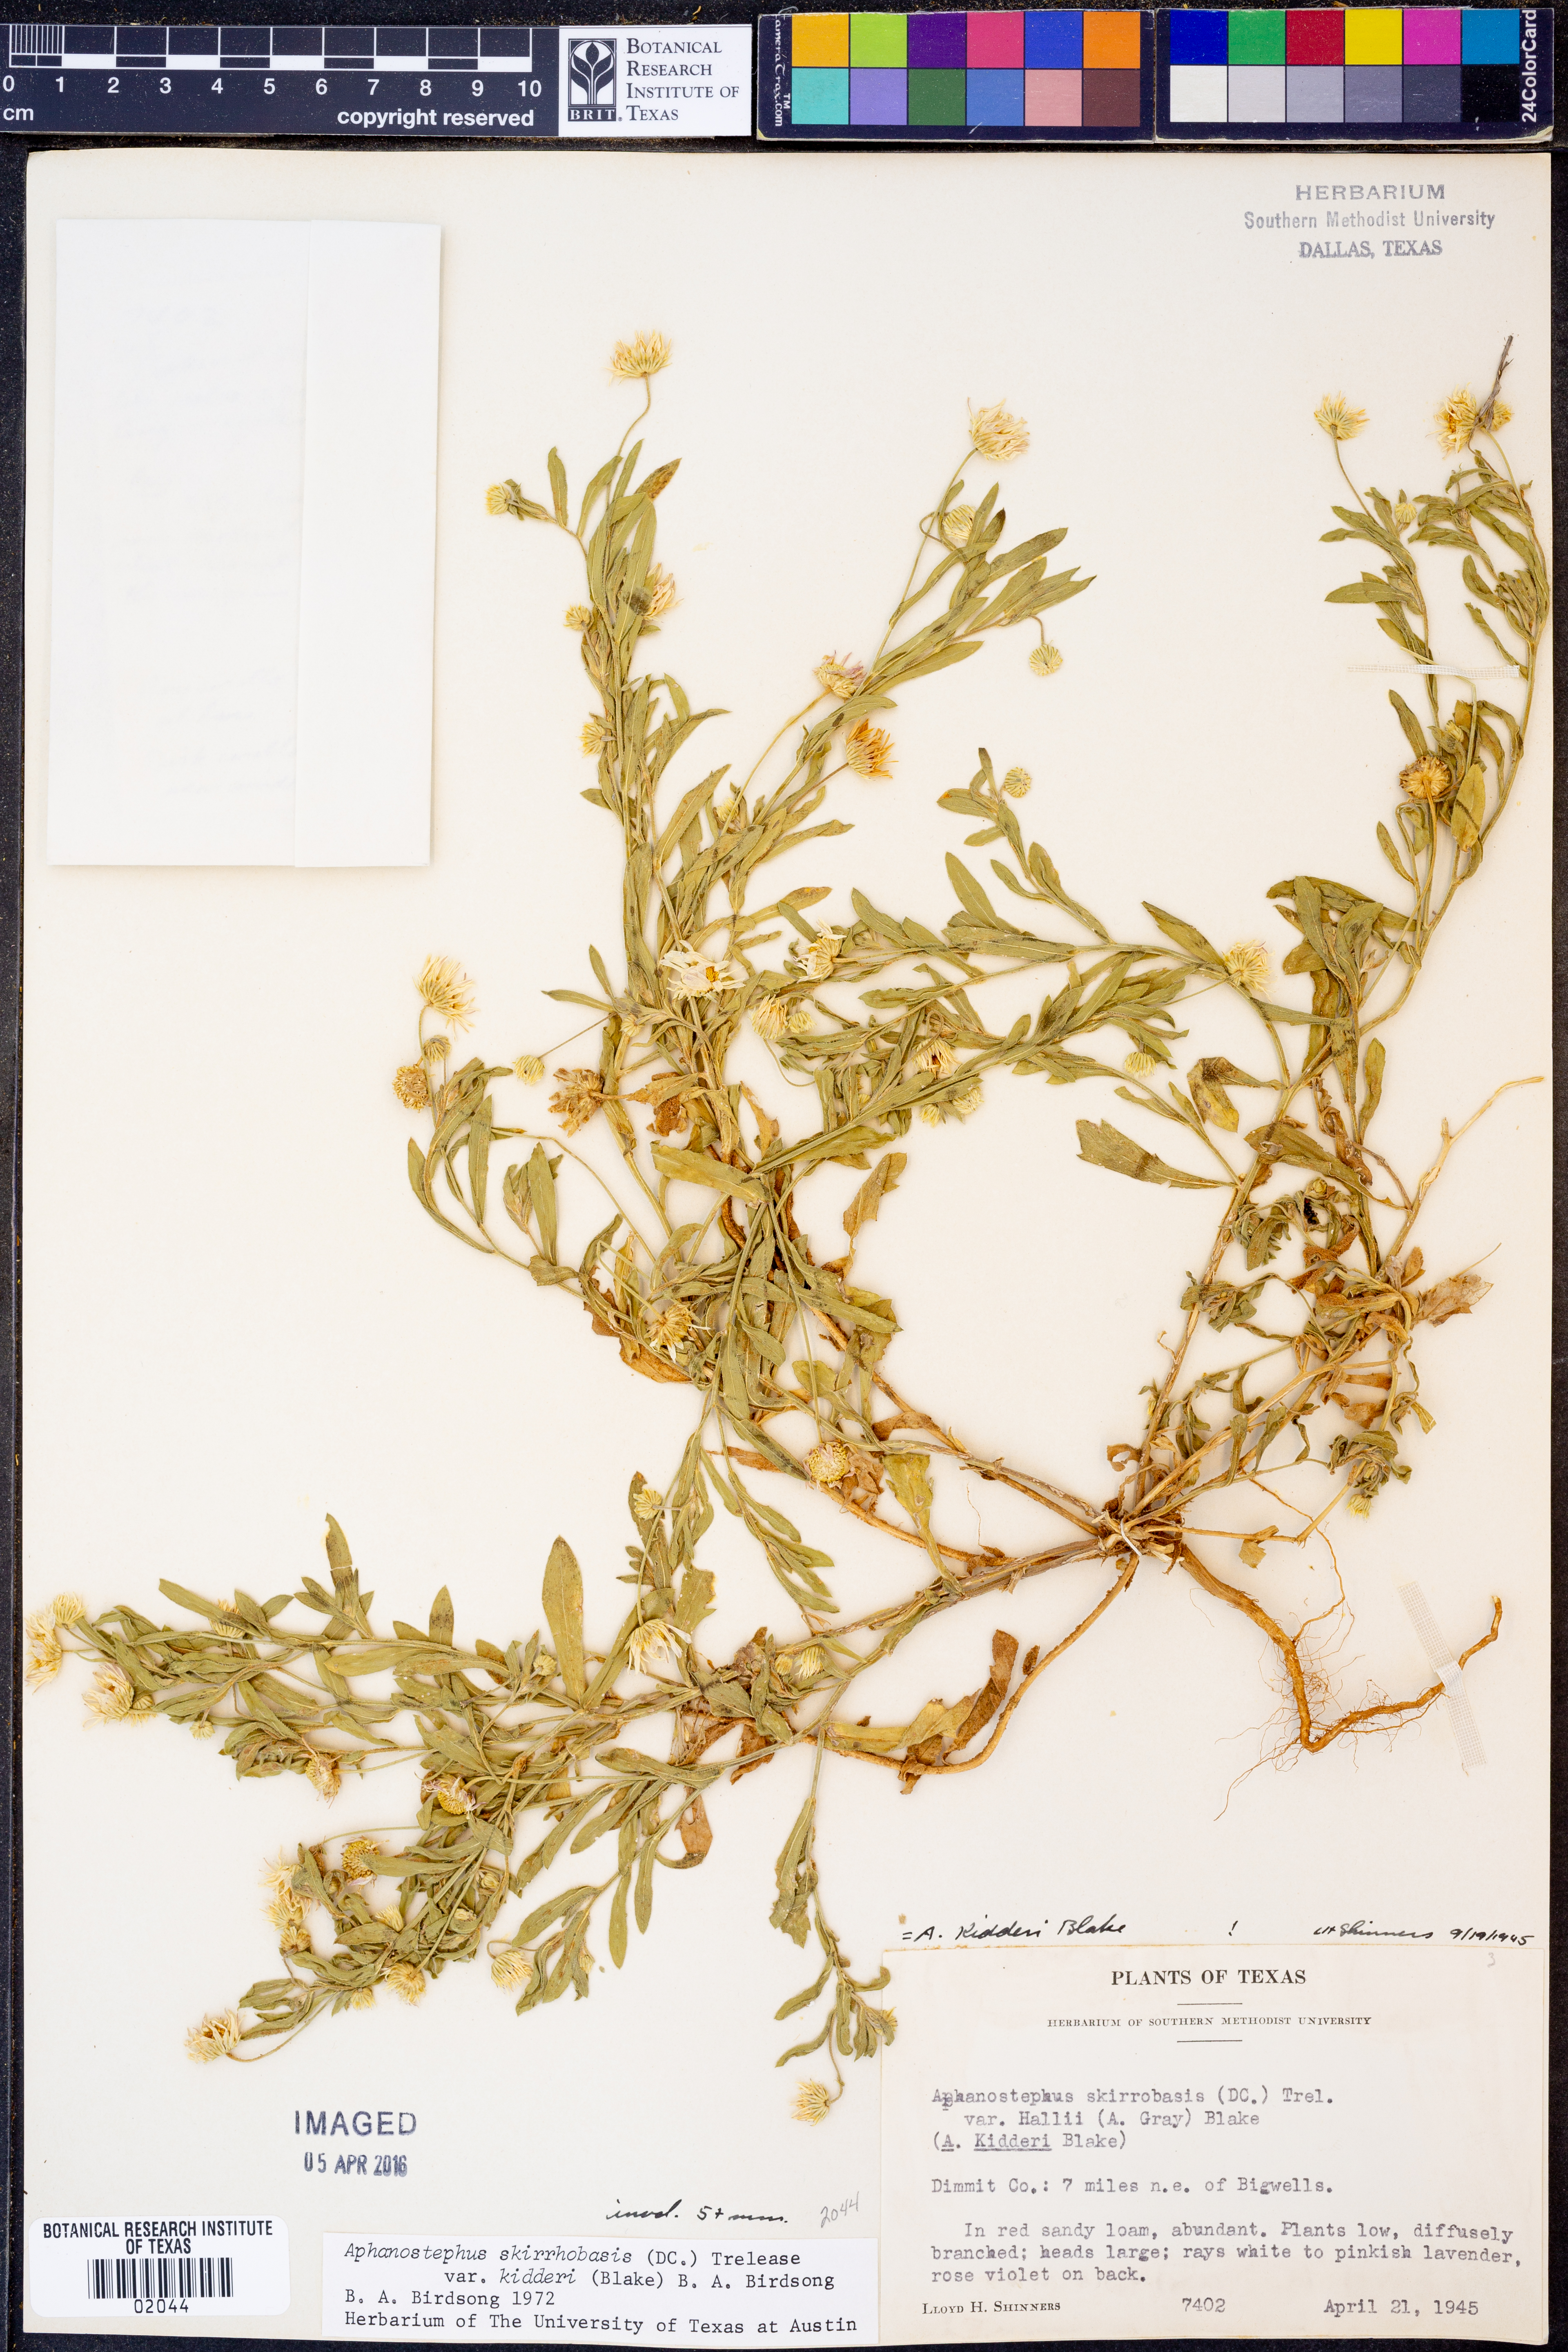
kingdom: Plantae
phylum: Tracheophyta
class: Magnoliopsida
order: Asterales
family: Asteraceae
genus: Aphanostephus
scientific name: Aphanostephus skirrhobasis
